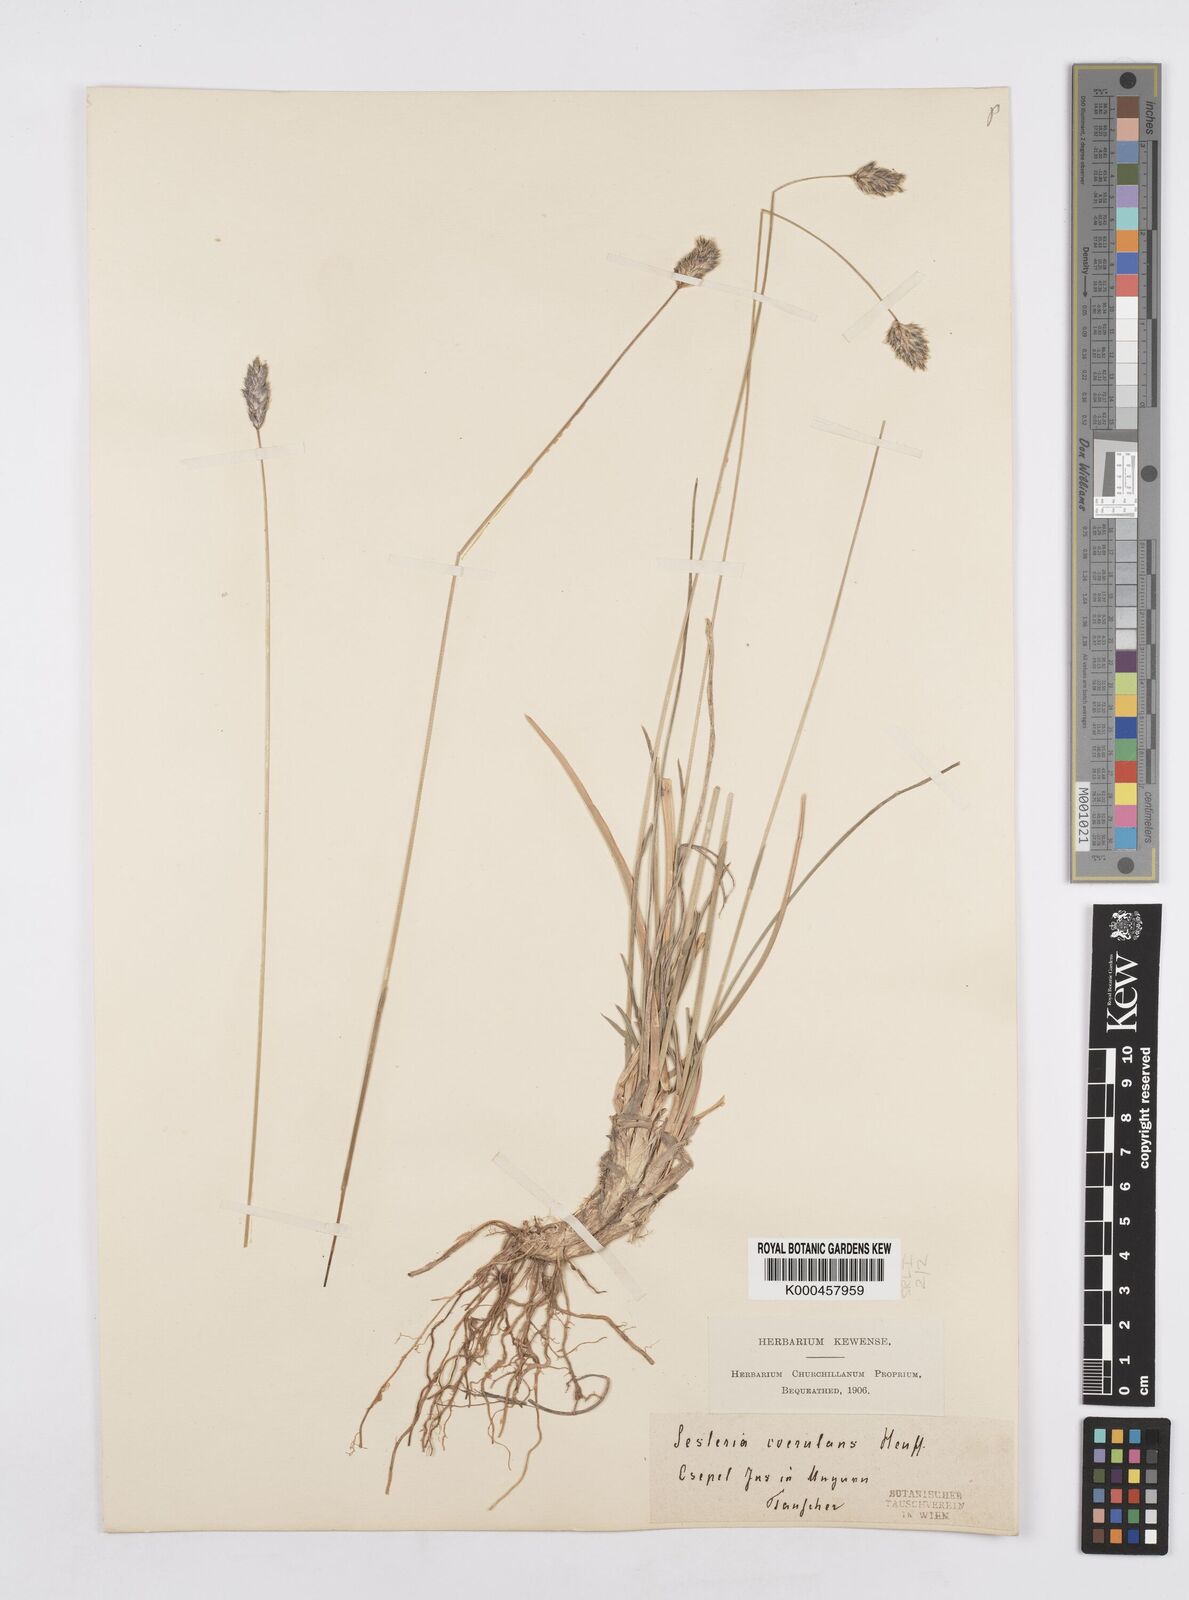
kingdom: Plantae
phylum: Tracheophyta
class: Liliopsida
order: Poales
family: Poaceae
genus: Sesleria
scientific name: Sesleria coerulans
